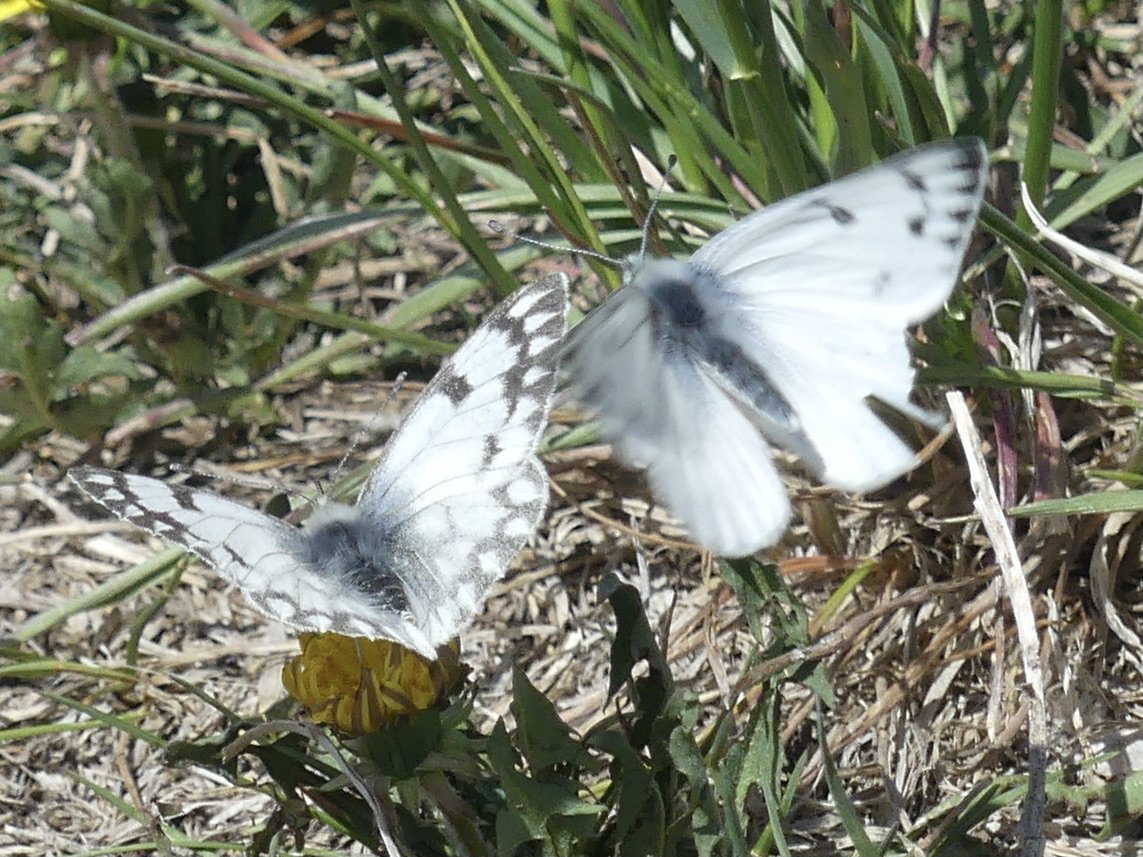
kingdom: Animalia
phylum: Arthropoda
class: Insecta
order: Lepidoptera
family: Pieridae
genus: Pontia
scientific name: Pontia occidentalis
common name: Western White
